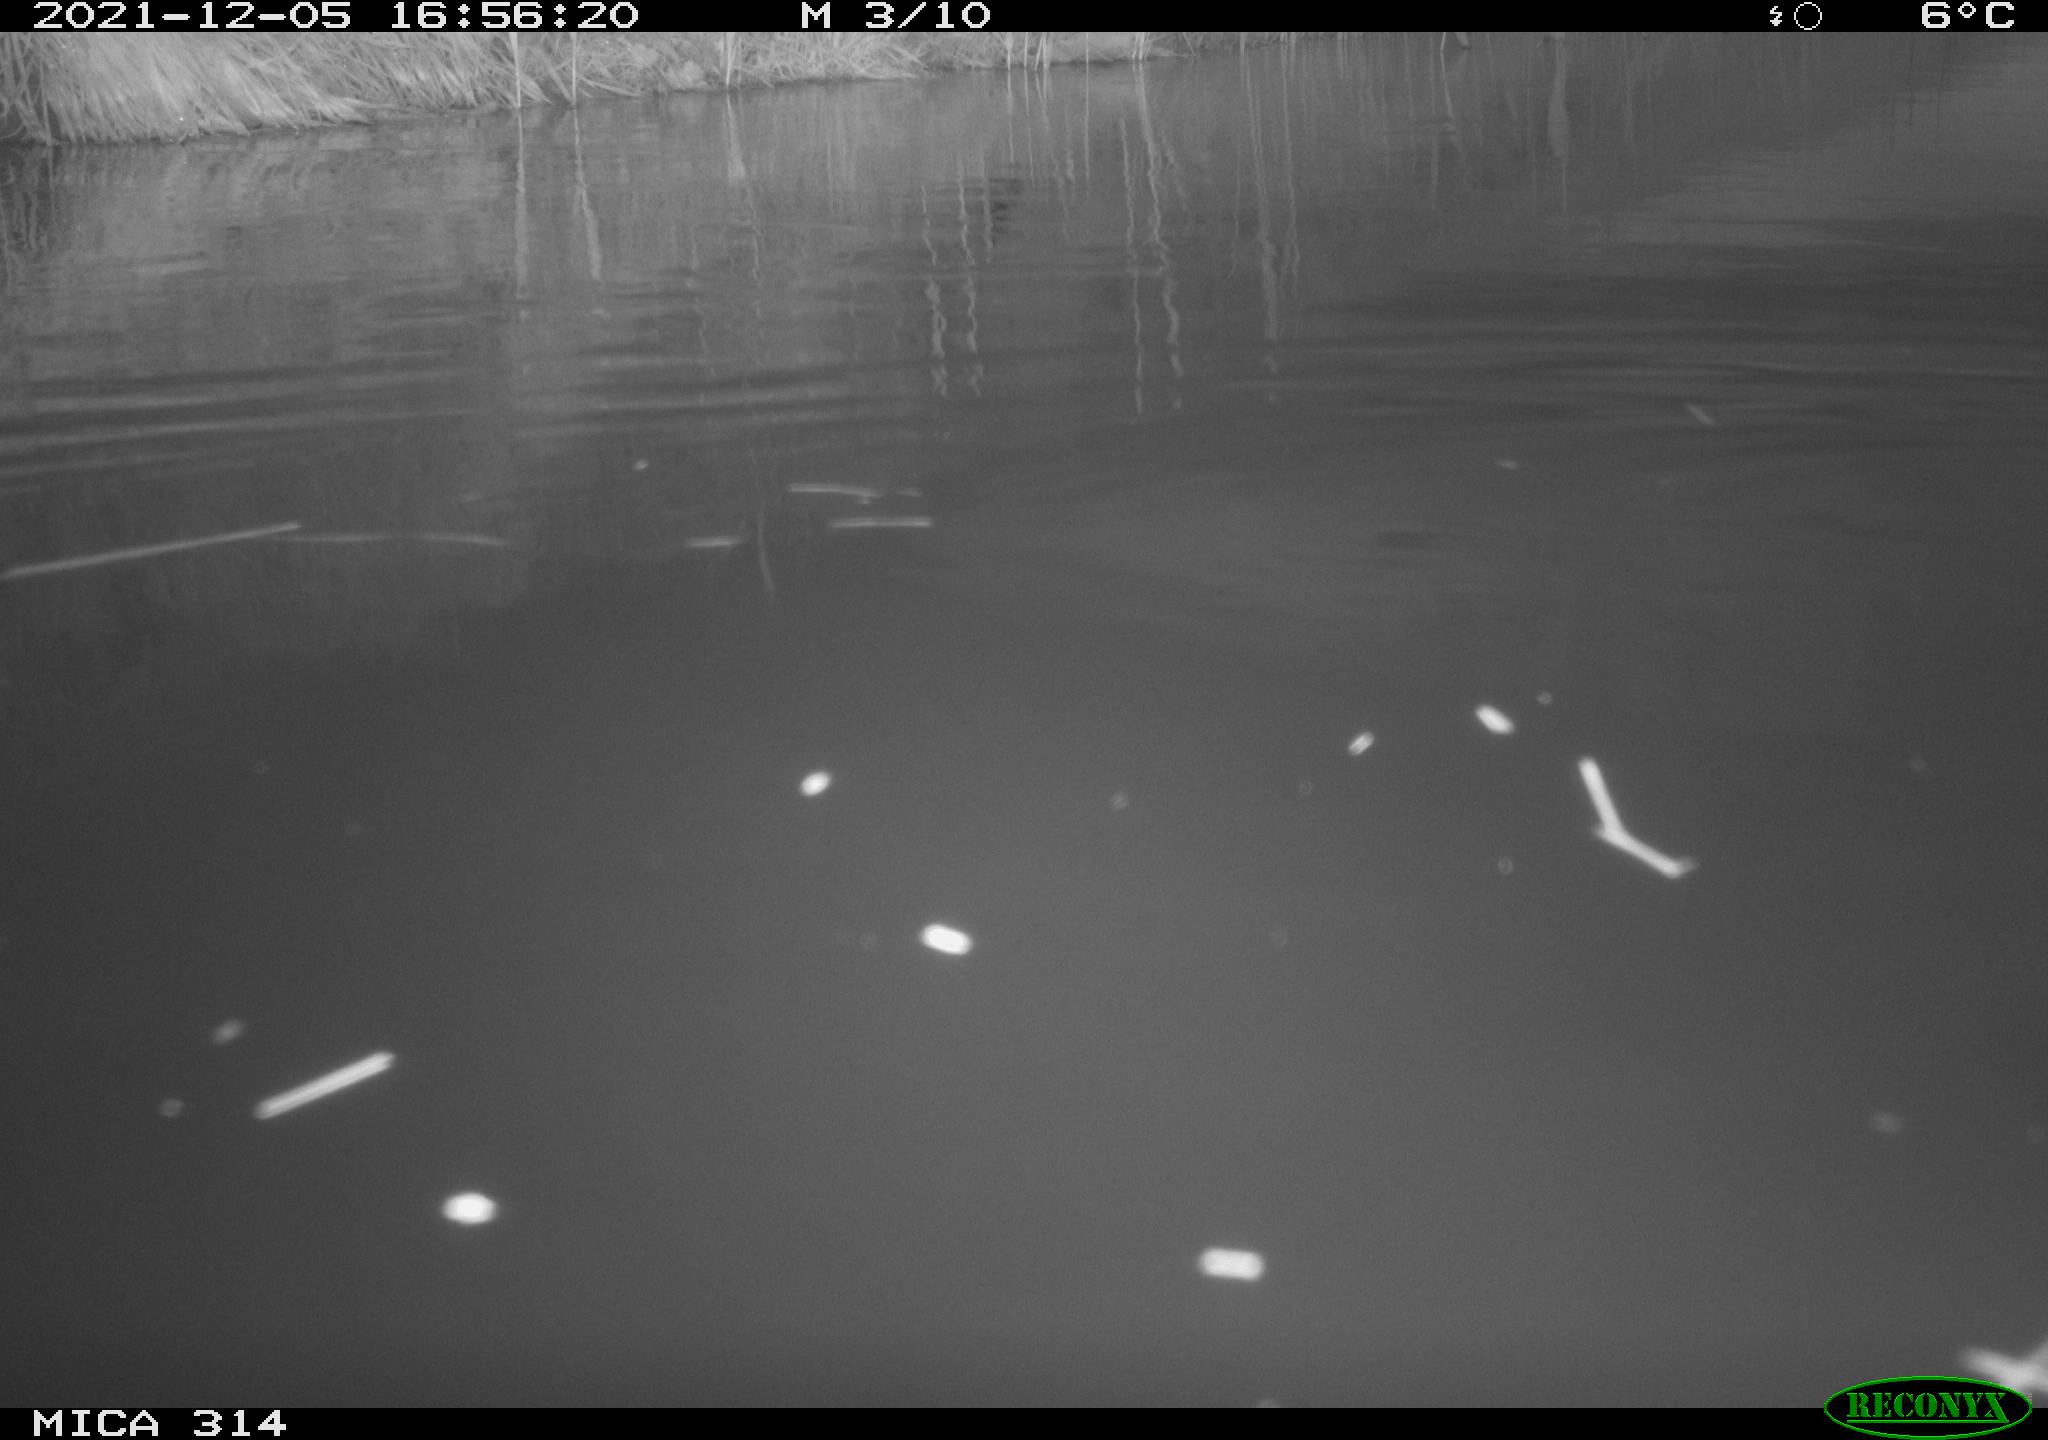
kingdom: Animalia
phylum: Chordata
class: Aves
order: Gruiformes
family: Rallidae
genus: Gallinula
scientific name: Gallinula chloropus
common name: Common moorhen
